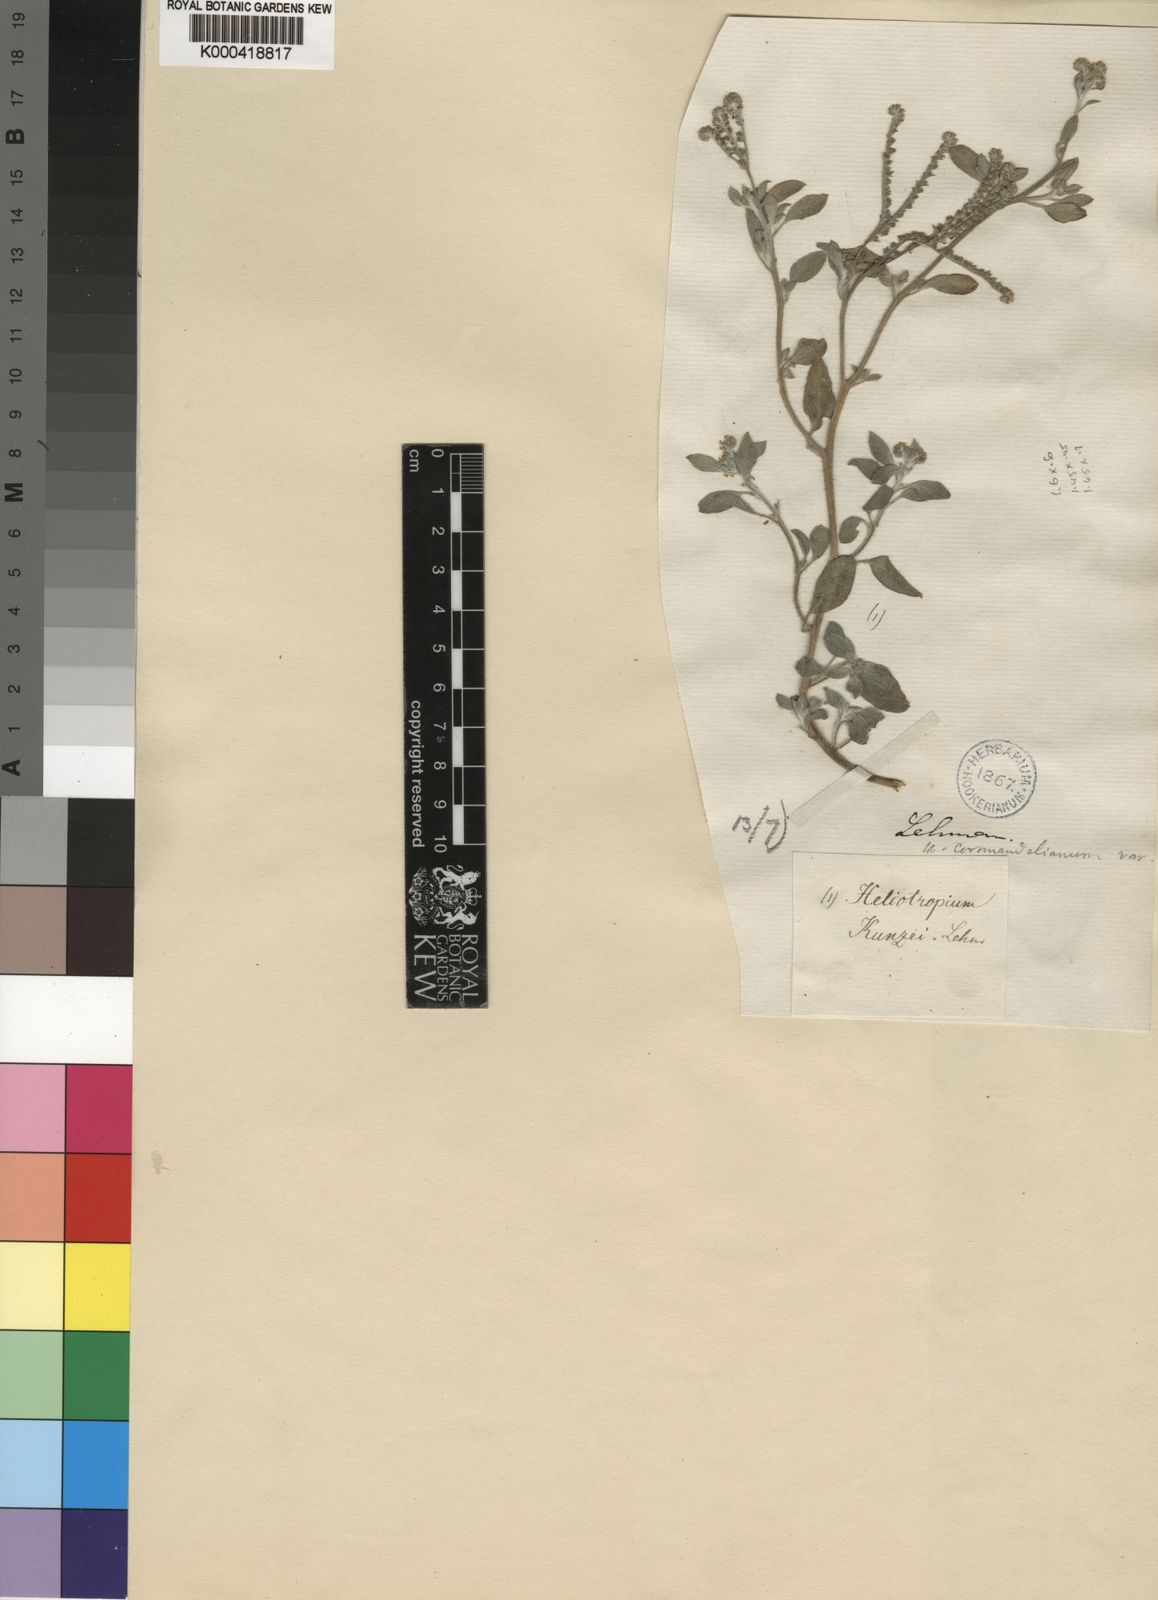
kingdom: Plantae
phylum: Tracheophyta
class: Magnoliopsida
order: Boraginales
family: Heliotropiaceae
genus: Euploca
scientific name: Euploca ovalifolia
